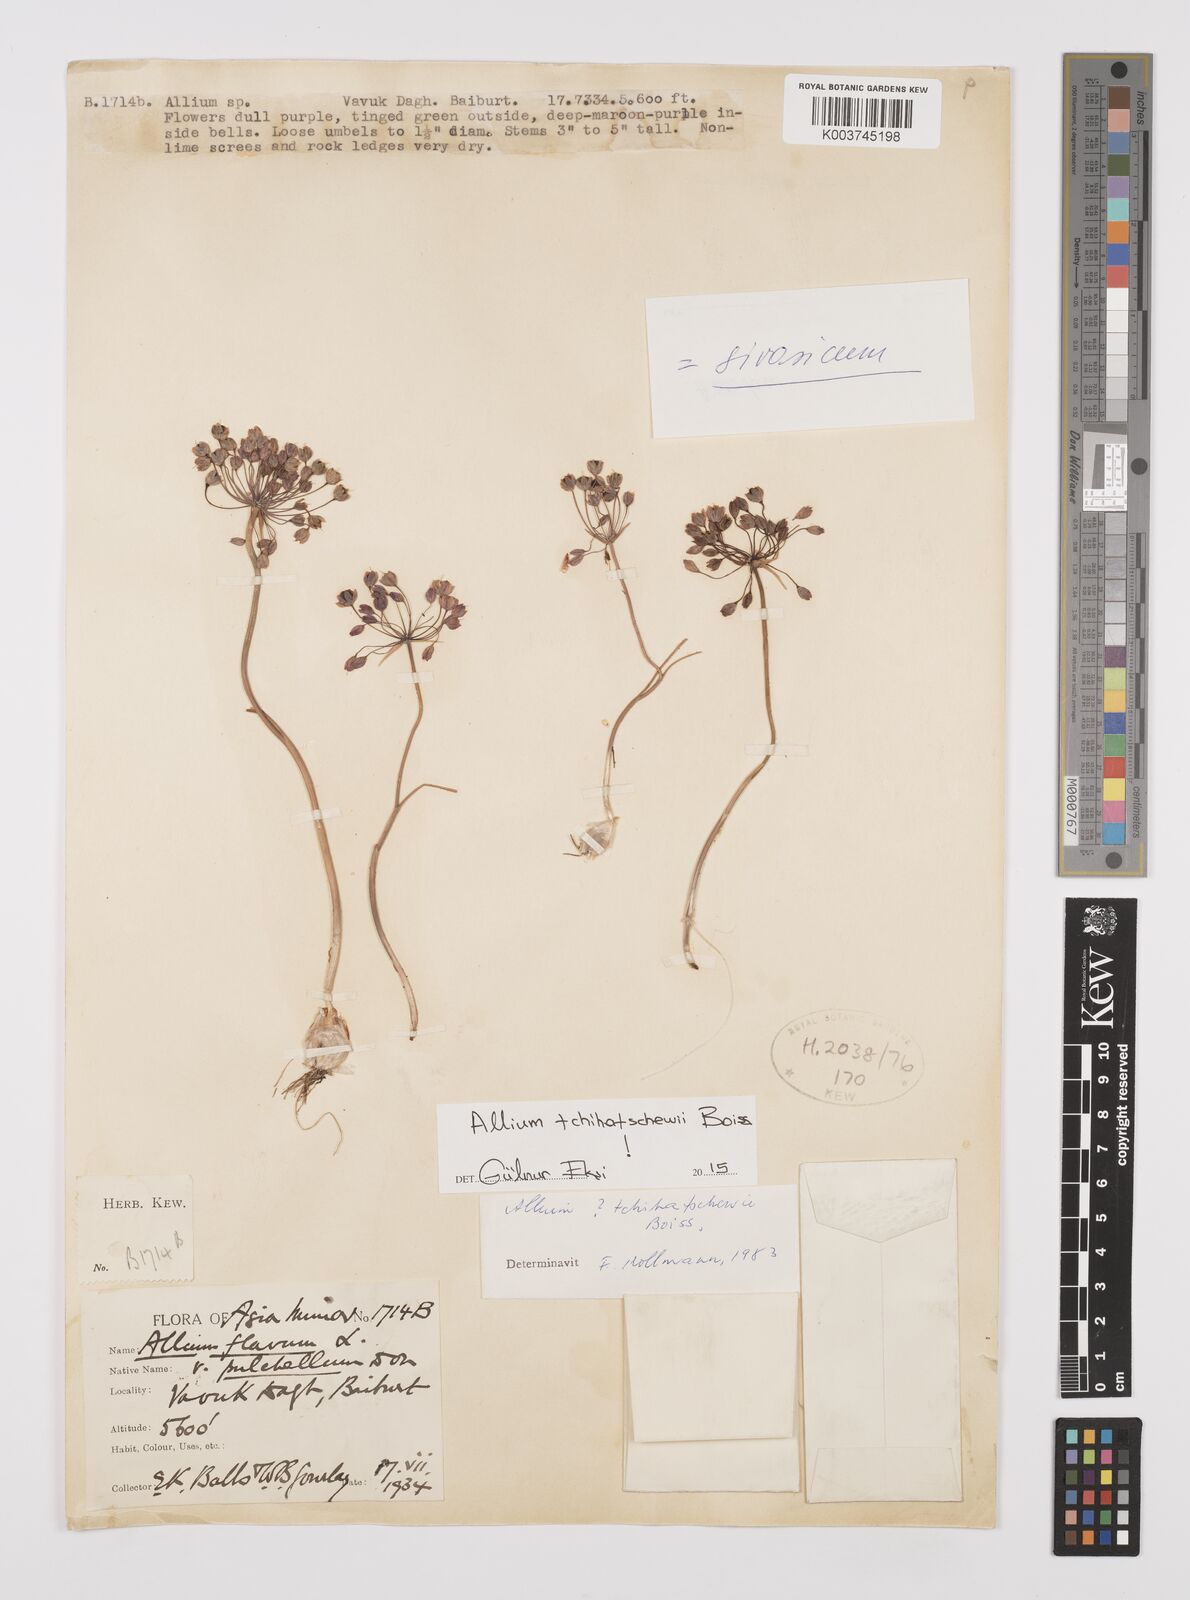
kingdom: Plantae
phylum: Tracheophyta
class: Liliopsida
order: Asparagales
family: Amaryllidaceae
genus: Allium
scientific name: Allium tchihatschewii
